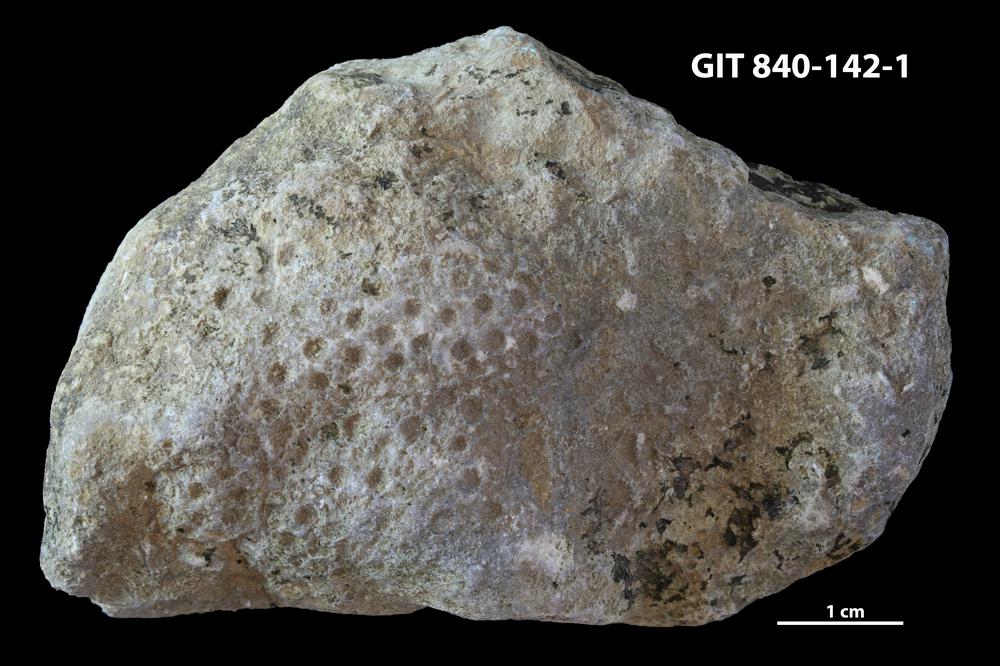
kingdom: Animalia
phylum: Xenacoelomorpha
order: Acoela
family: Proporidae
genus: Propora
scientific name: Propora
